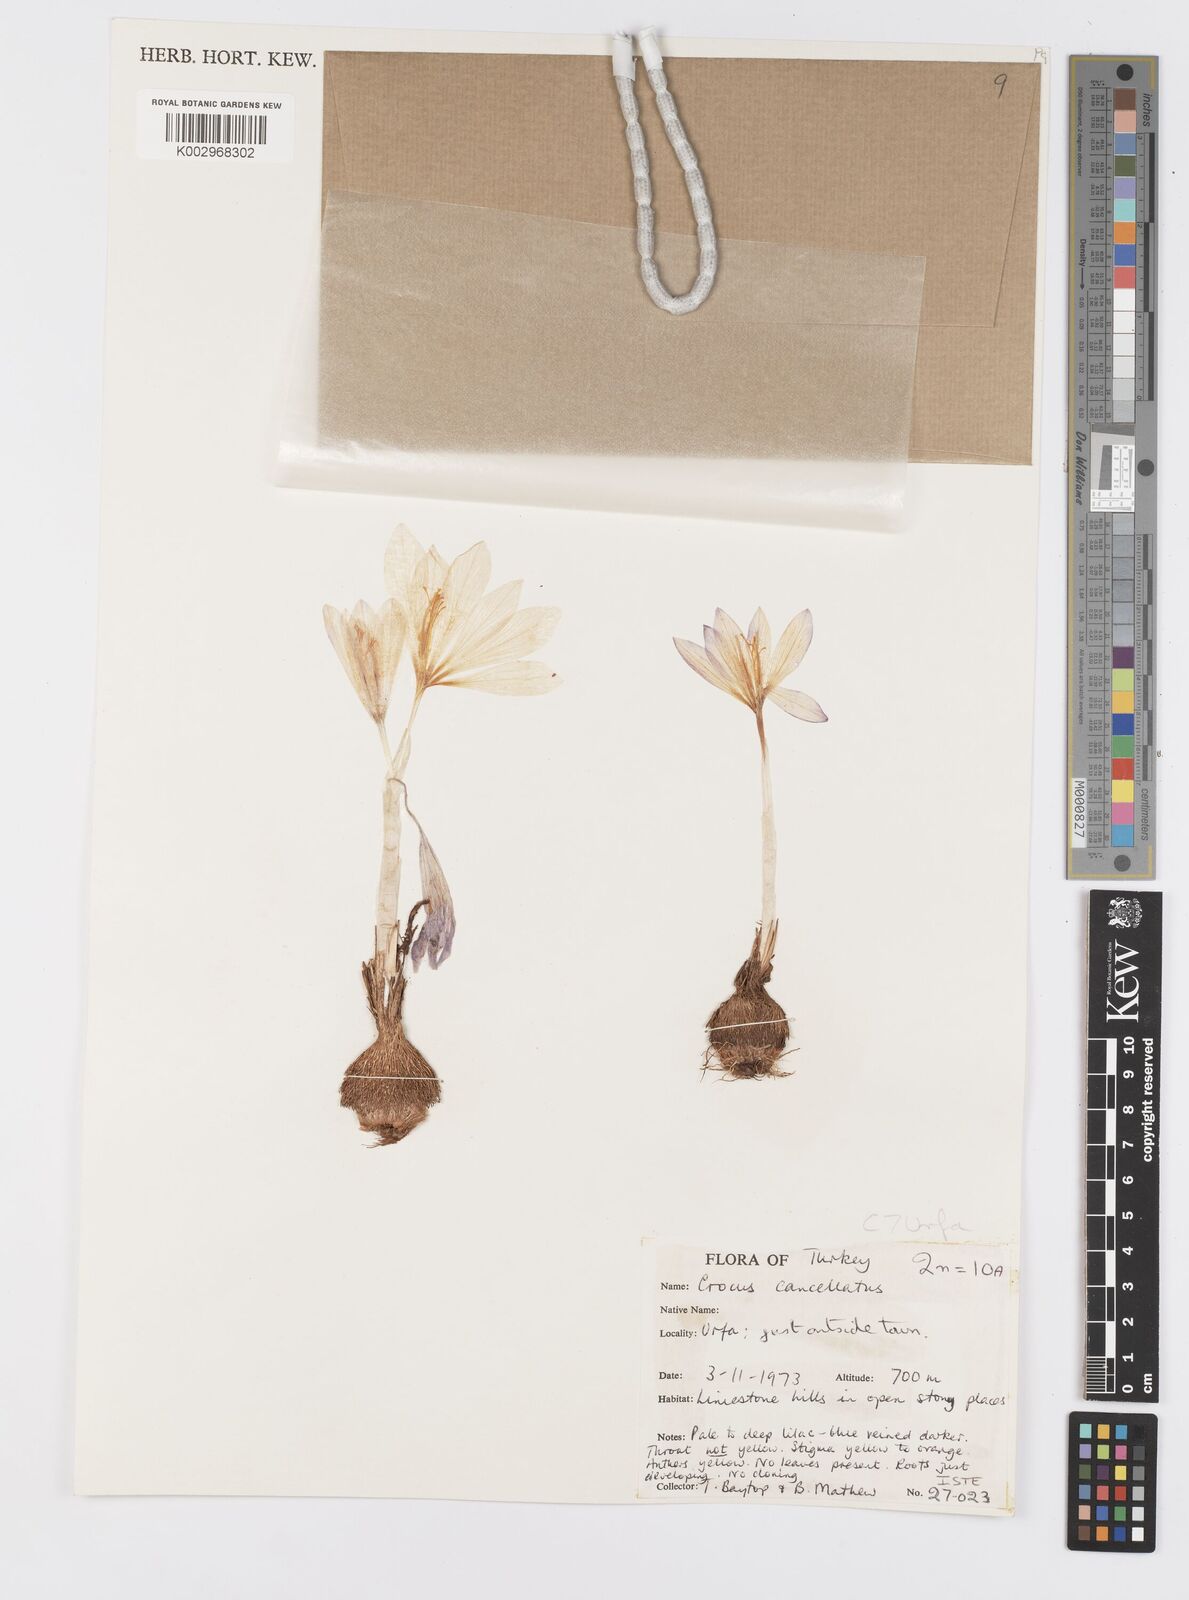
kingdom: Plantae
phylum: Tracheophyta
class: Liliopsida
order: Asparagales
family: Iridaceae
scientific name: Iridaceae
